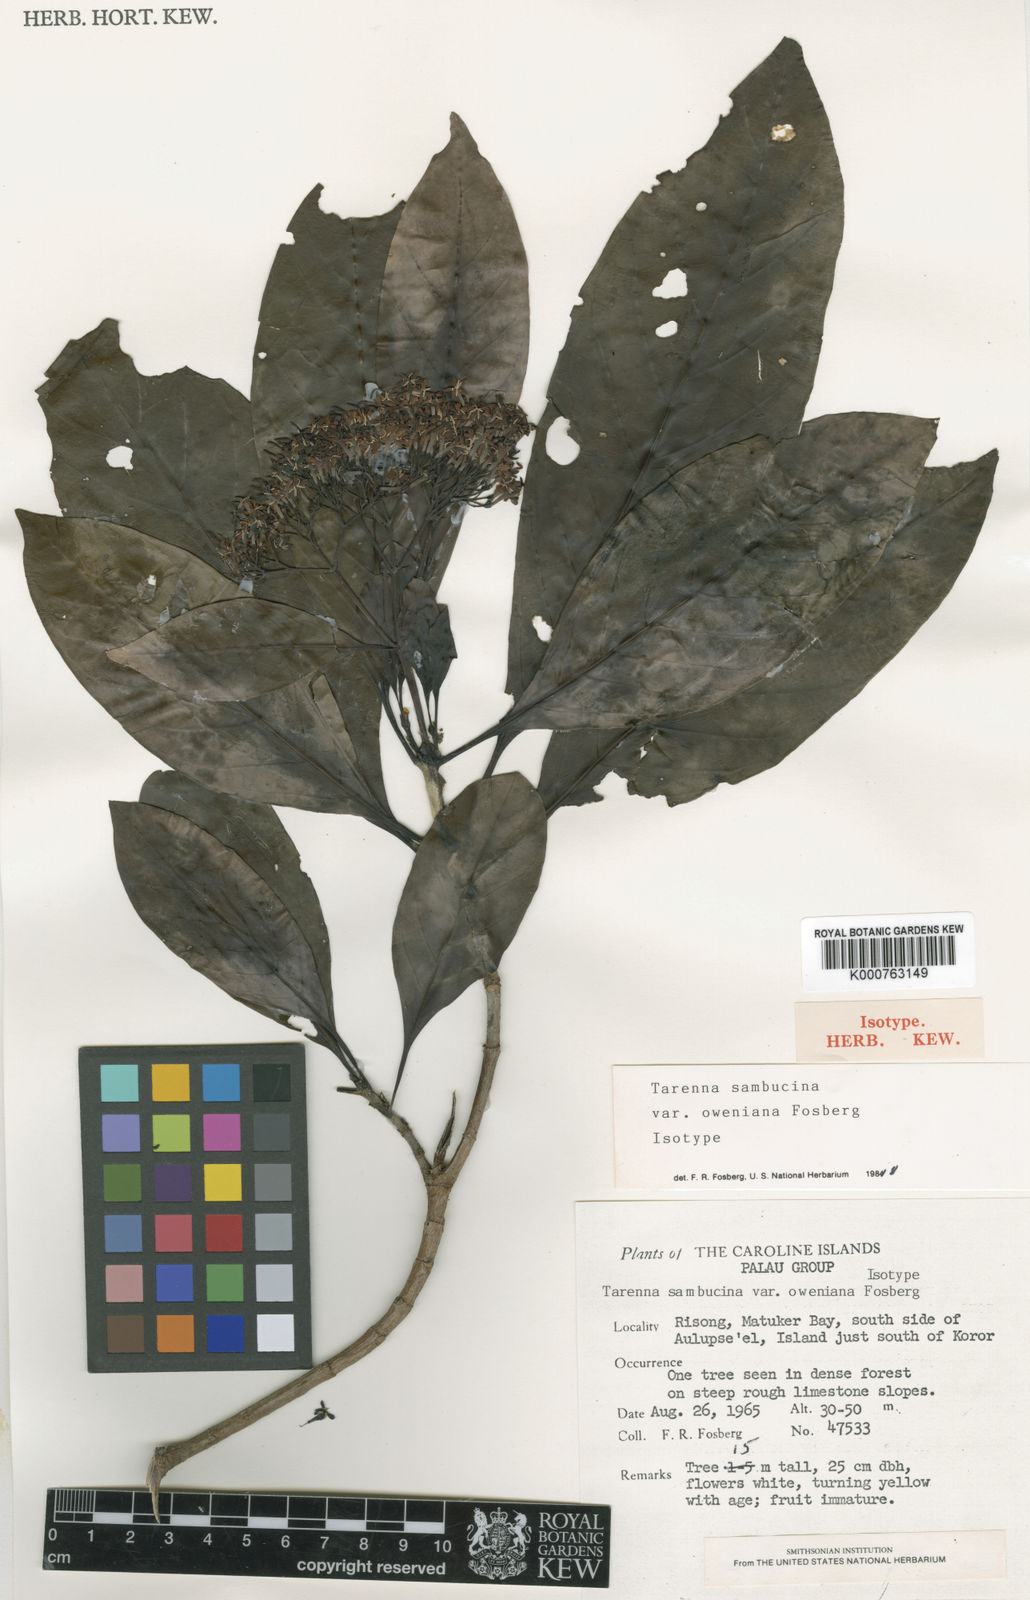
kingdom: Plantae
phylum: Tracheophyta
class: Magnoliopsida
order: Gentianales
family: Rubiaceae
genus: Tarenna
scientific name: Tarenna sambucina
